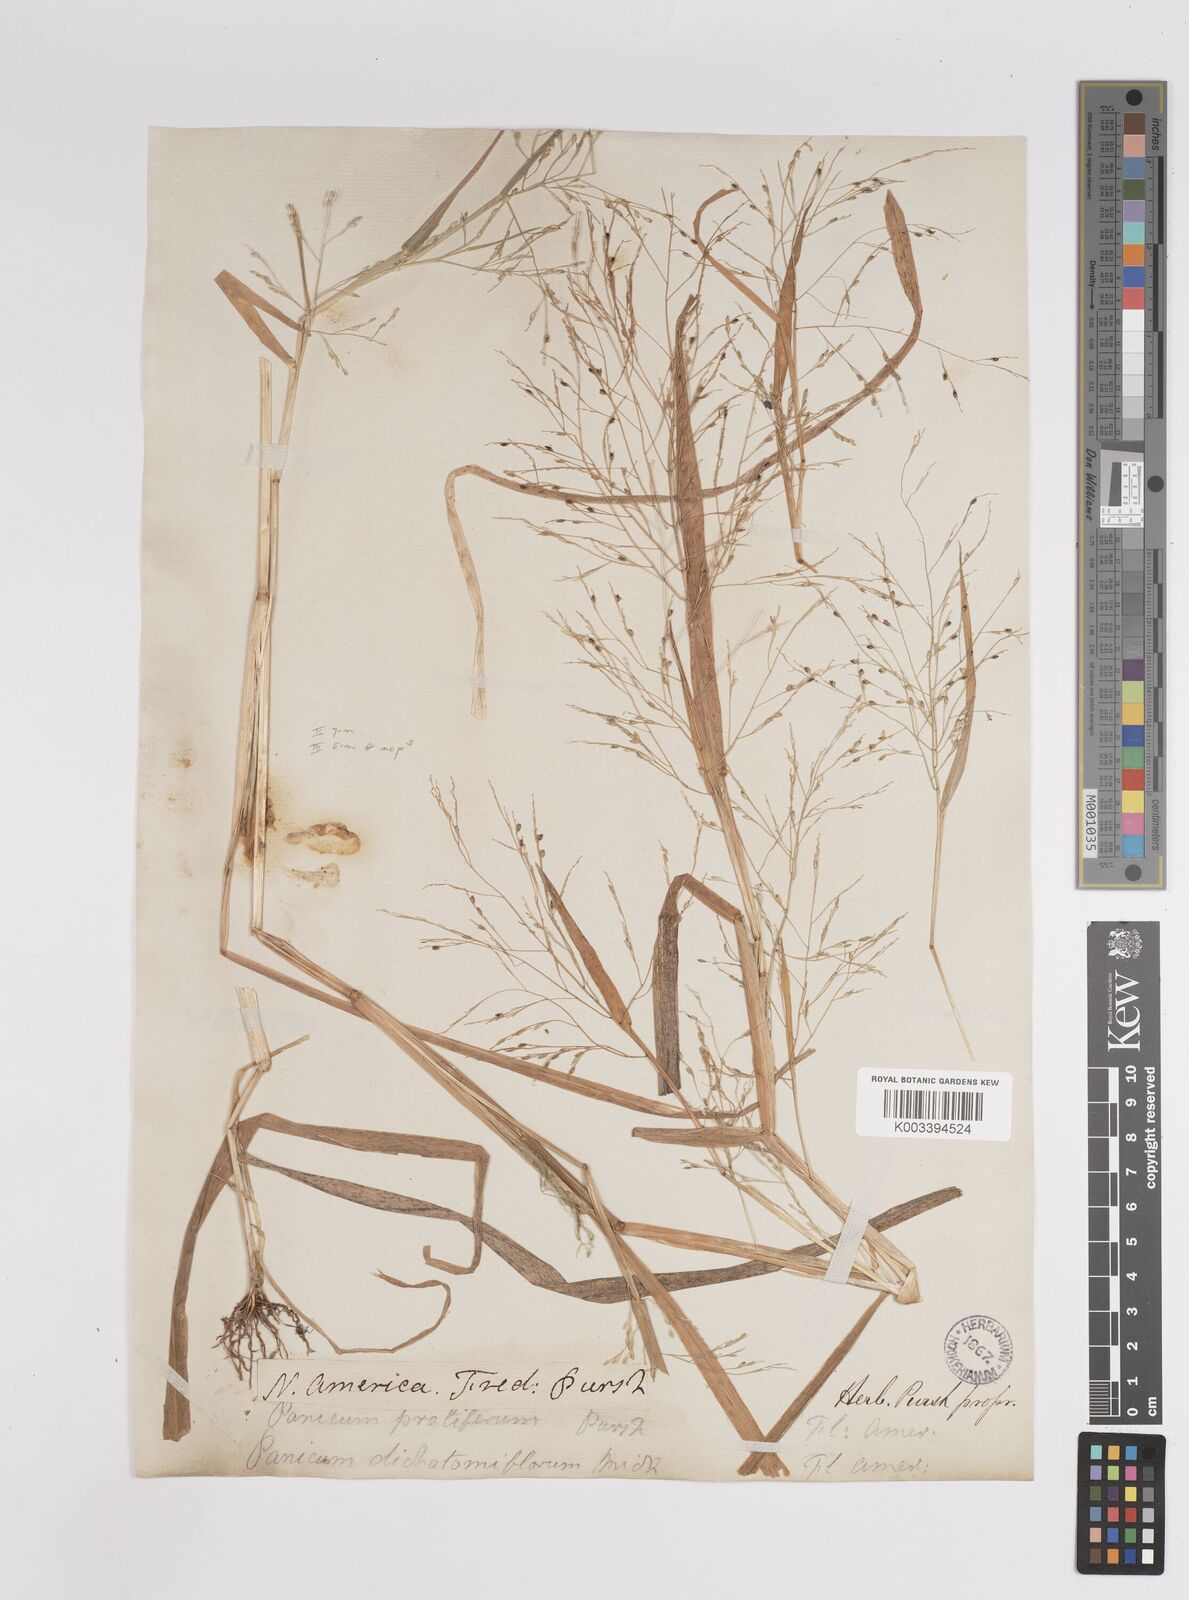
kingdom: Plantae
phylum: Tracheophyta
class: Liliopsida
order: Poales
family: Poaceae
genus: Panicum
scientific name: Panicum dichotomiflorum
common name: Autumn millet
